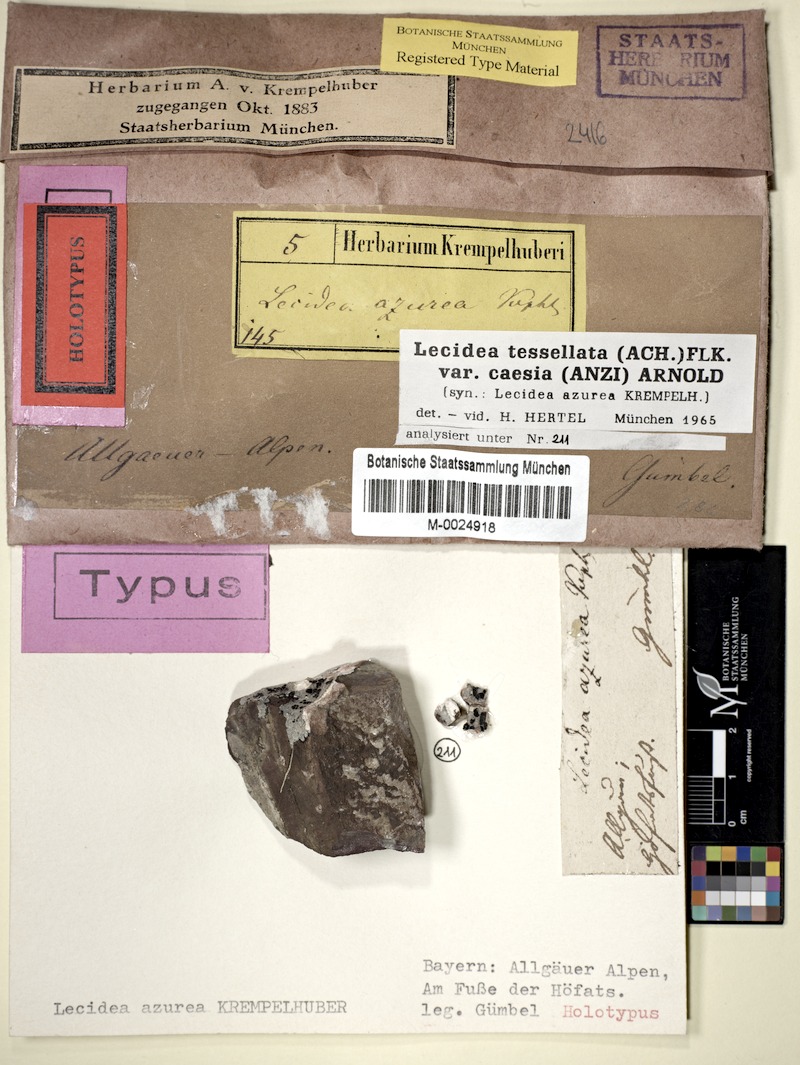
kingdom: Fungi
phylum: Ascomycota
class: Lecanoromycetes
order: Lecideales
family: Lecideaceae
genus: Lecidea
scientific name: Lecidea tessellata
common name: Tile lichen
